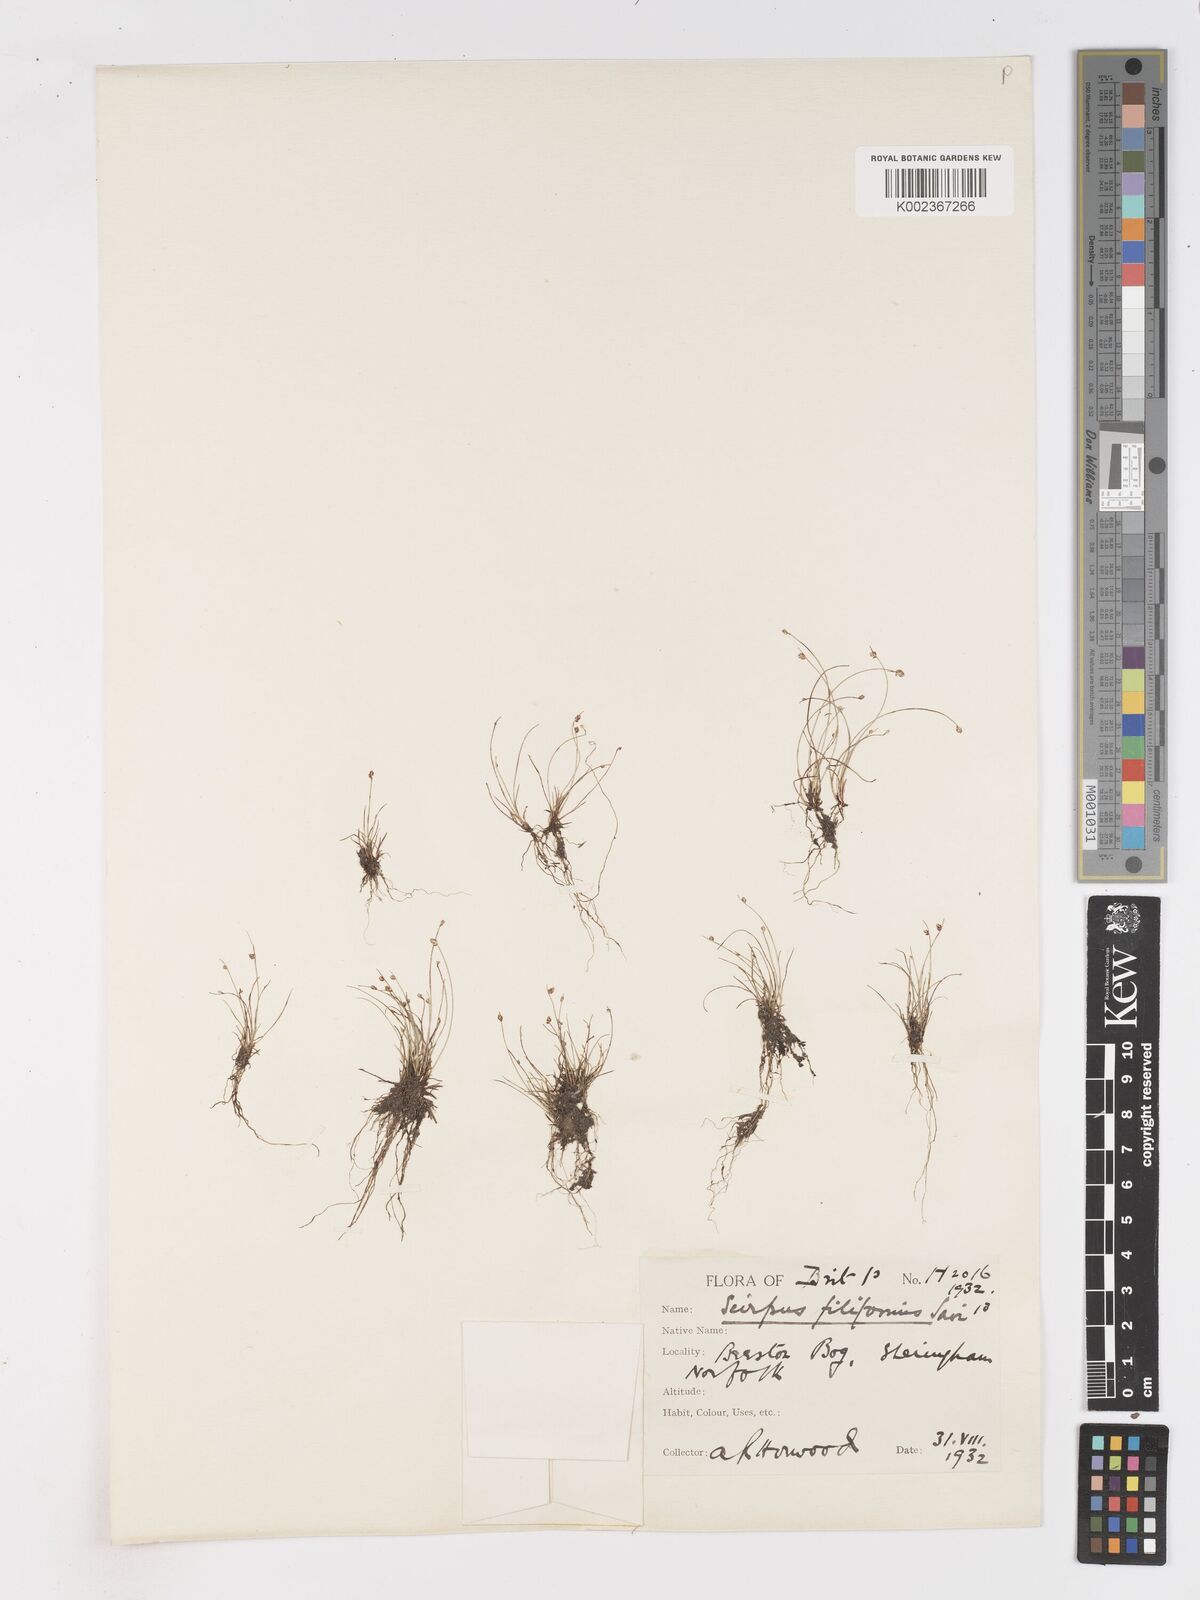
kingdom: Plantae
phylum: Tracheophyta
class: Liliopsida
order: Poales
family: Cyperaceae
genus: Isolepis
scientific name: Isolepis cernua
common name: Slender club-rush
